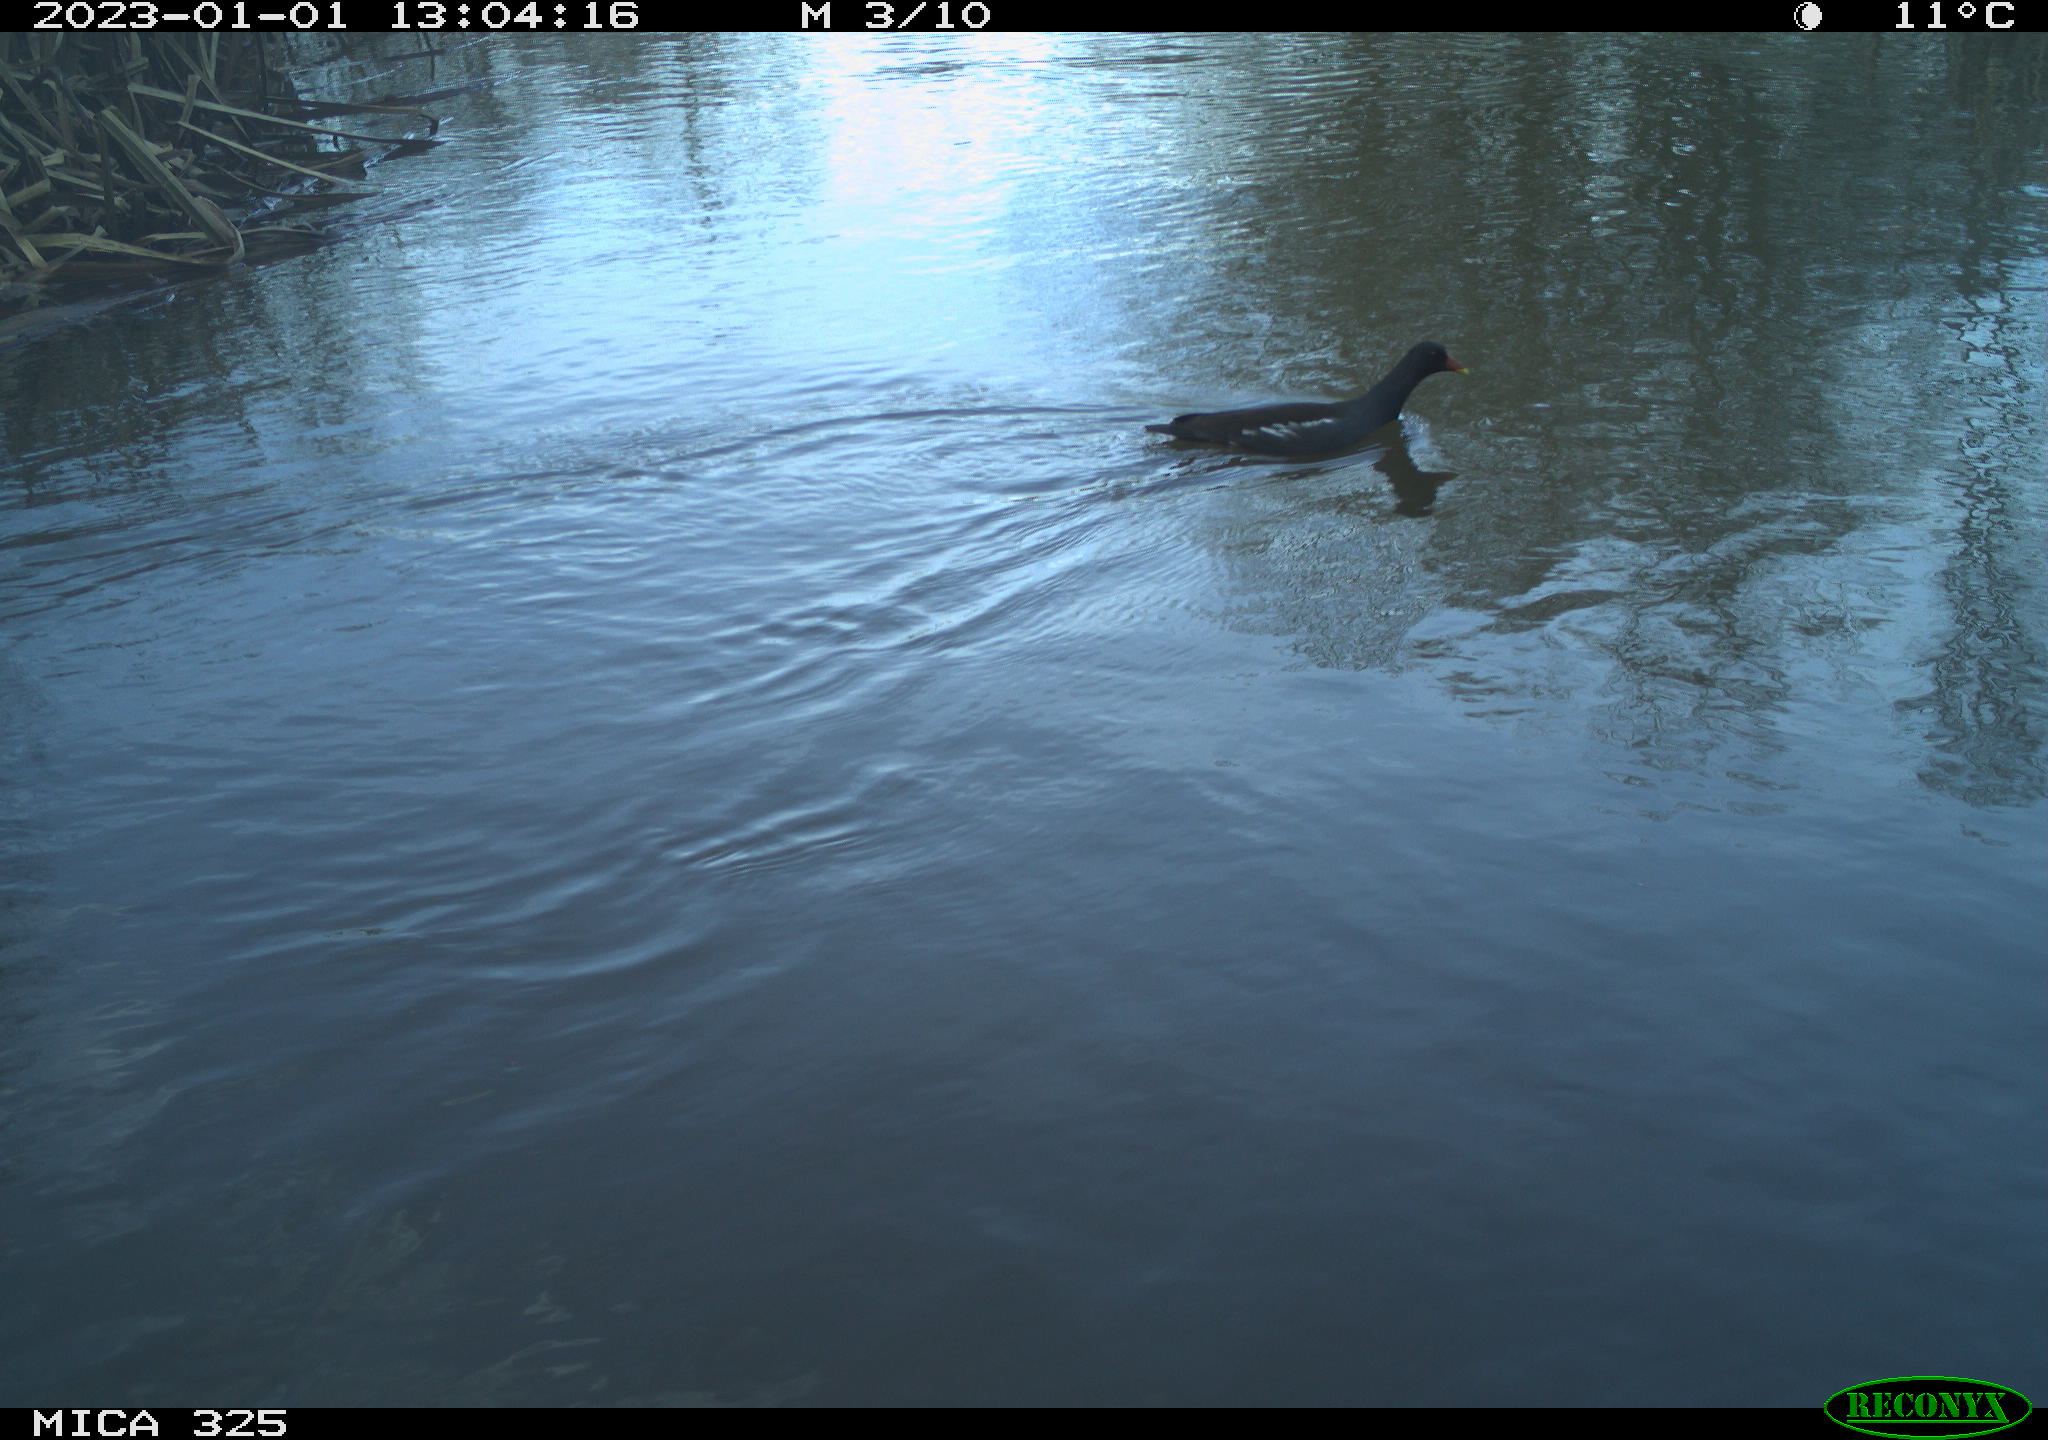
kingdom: Animalia
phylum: Chordata
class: Aves
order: Gruiformes
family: Rallidae
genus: Gallinula
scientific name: Gallinula chloropus
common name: Common moorhen
